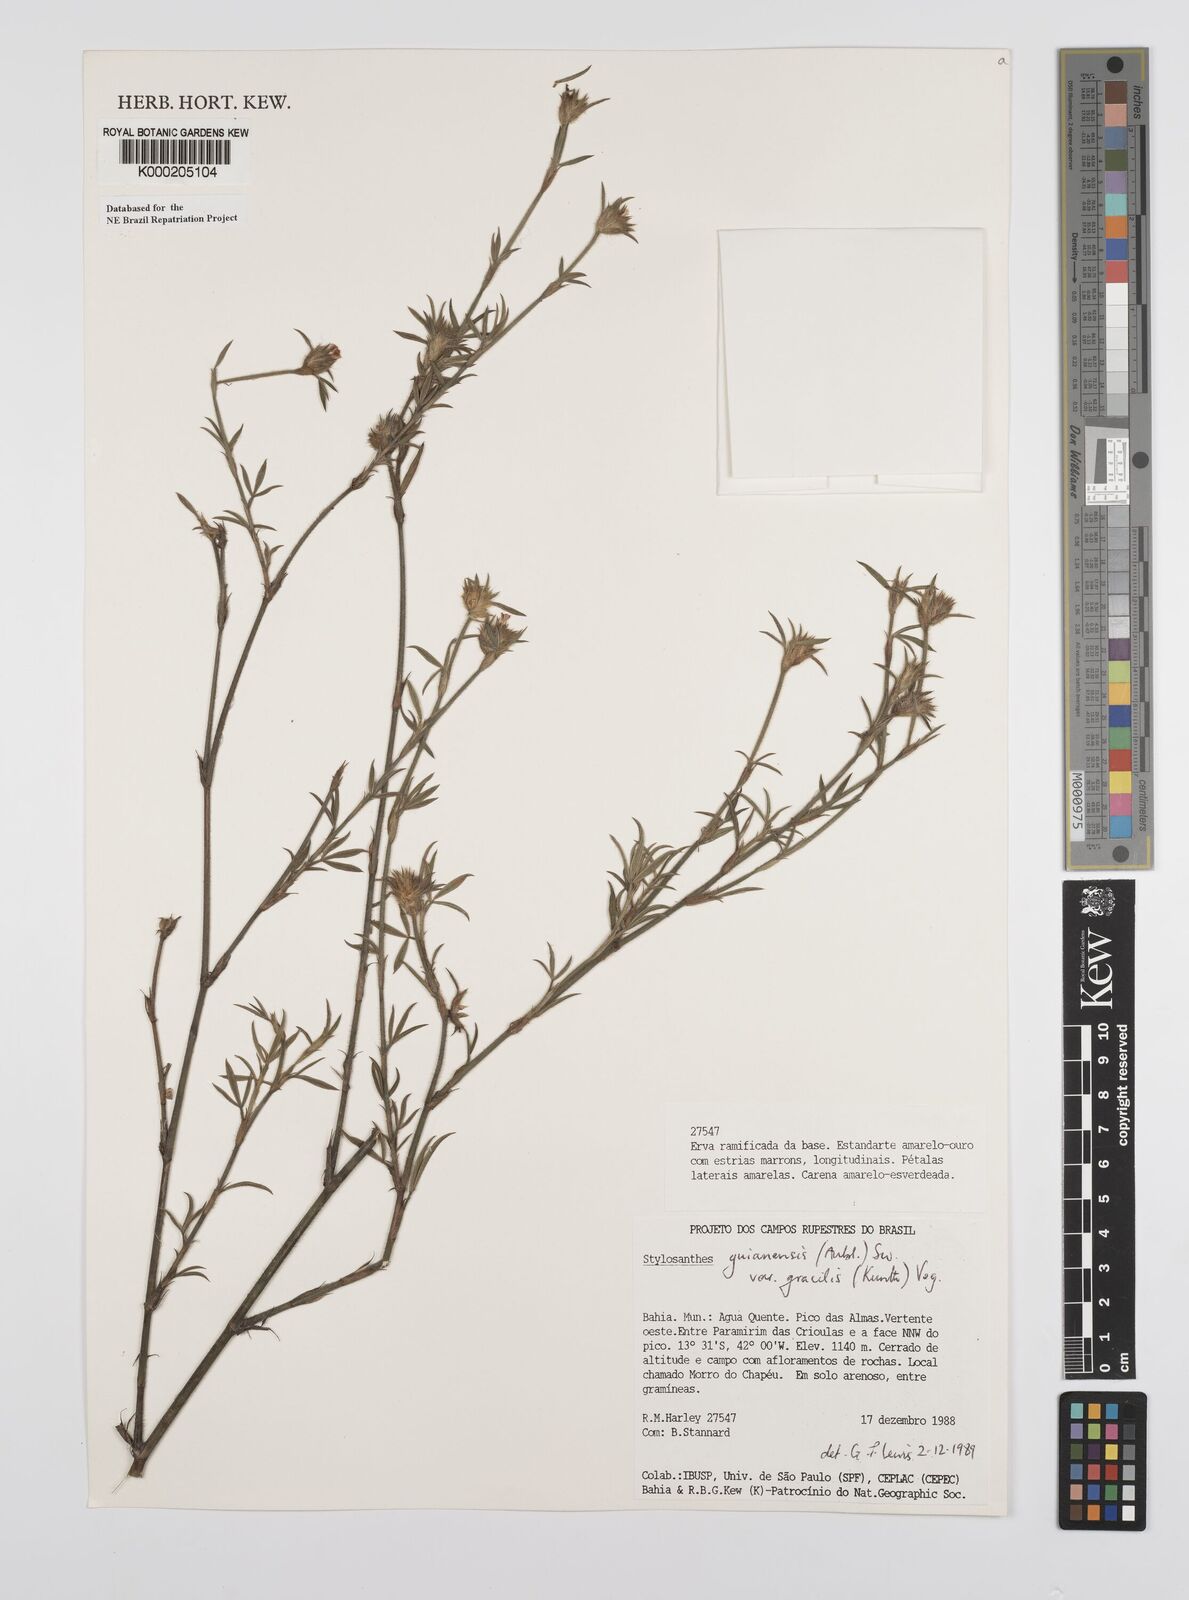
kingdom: Plantae
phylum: Tracheophyta
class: Magnoliopsida
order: Fabales
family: Fabaceae
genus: Stylosanthes
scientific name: Stylosanthes guianensis
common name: Pencil flower
